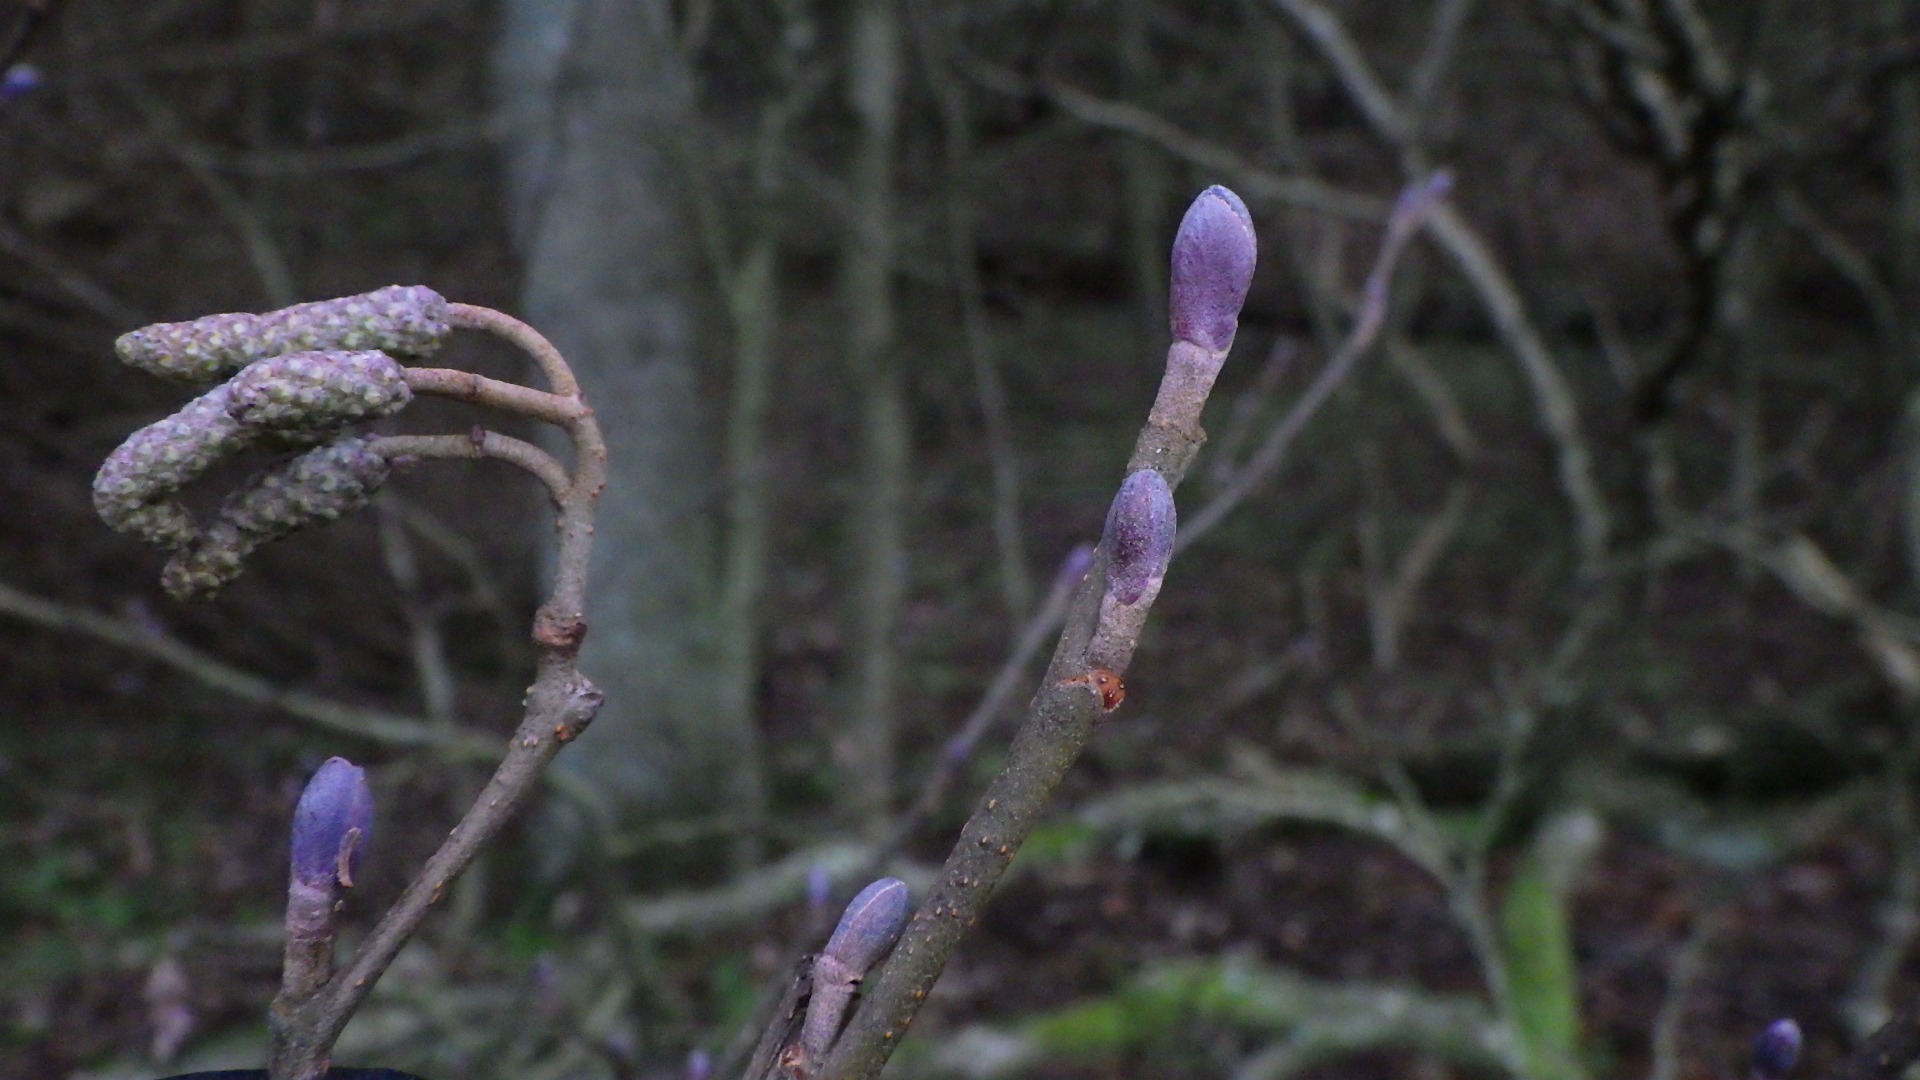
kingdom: Plantae
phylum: Tracheophyta
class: Magnoliopsida
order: Fagales
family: Betulaceae
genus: Alnus
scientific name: Alnus glutinosa
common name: Rød-el
